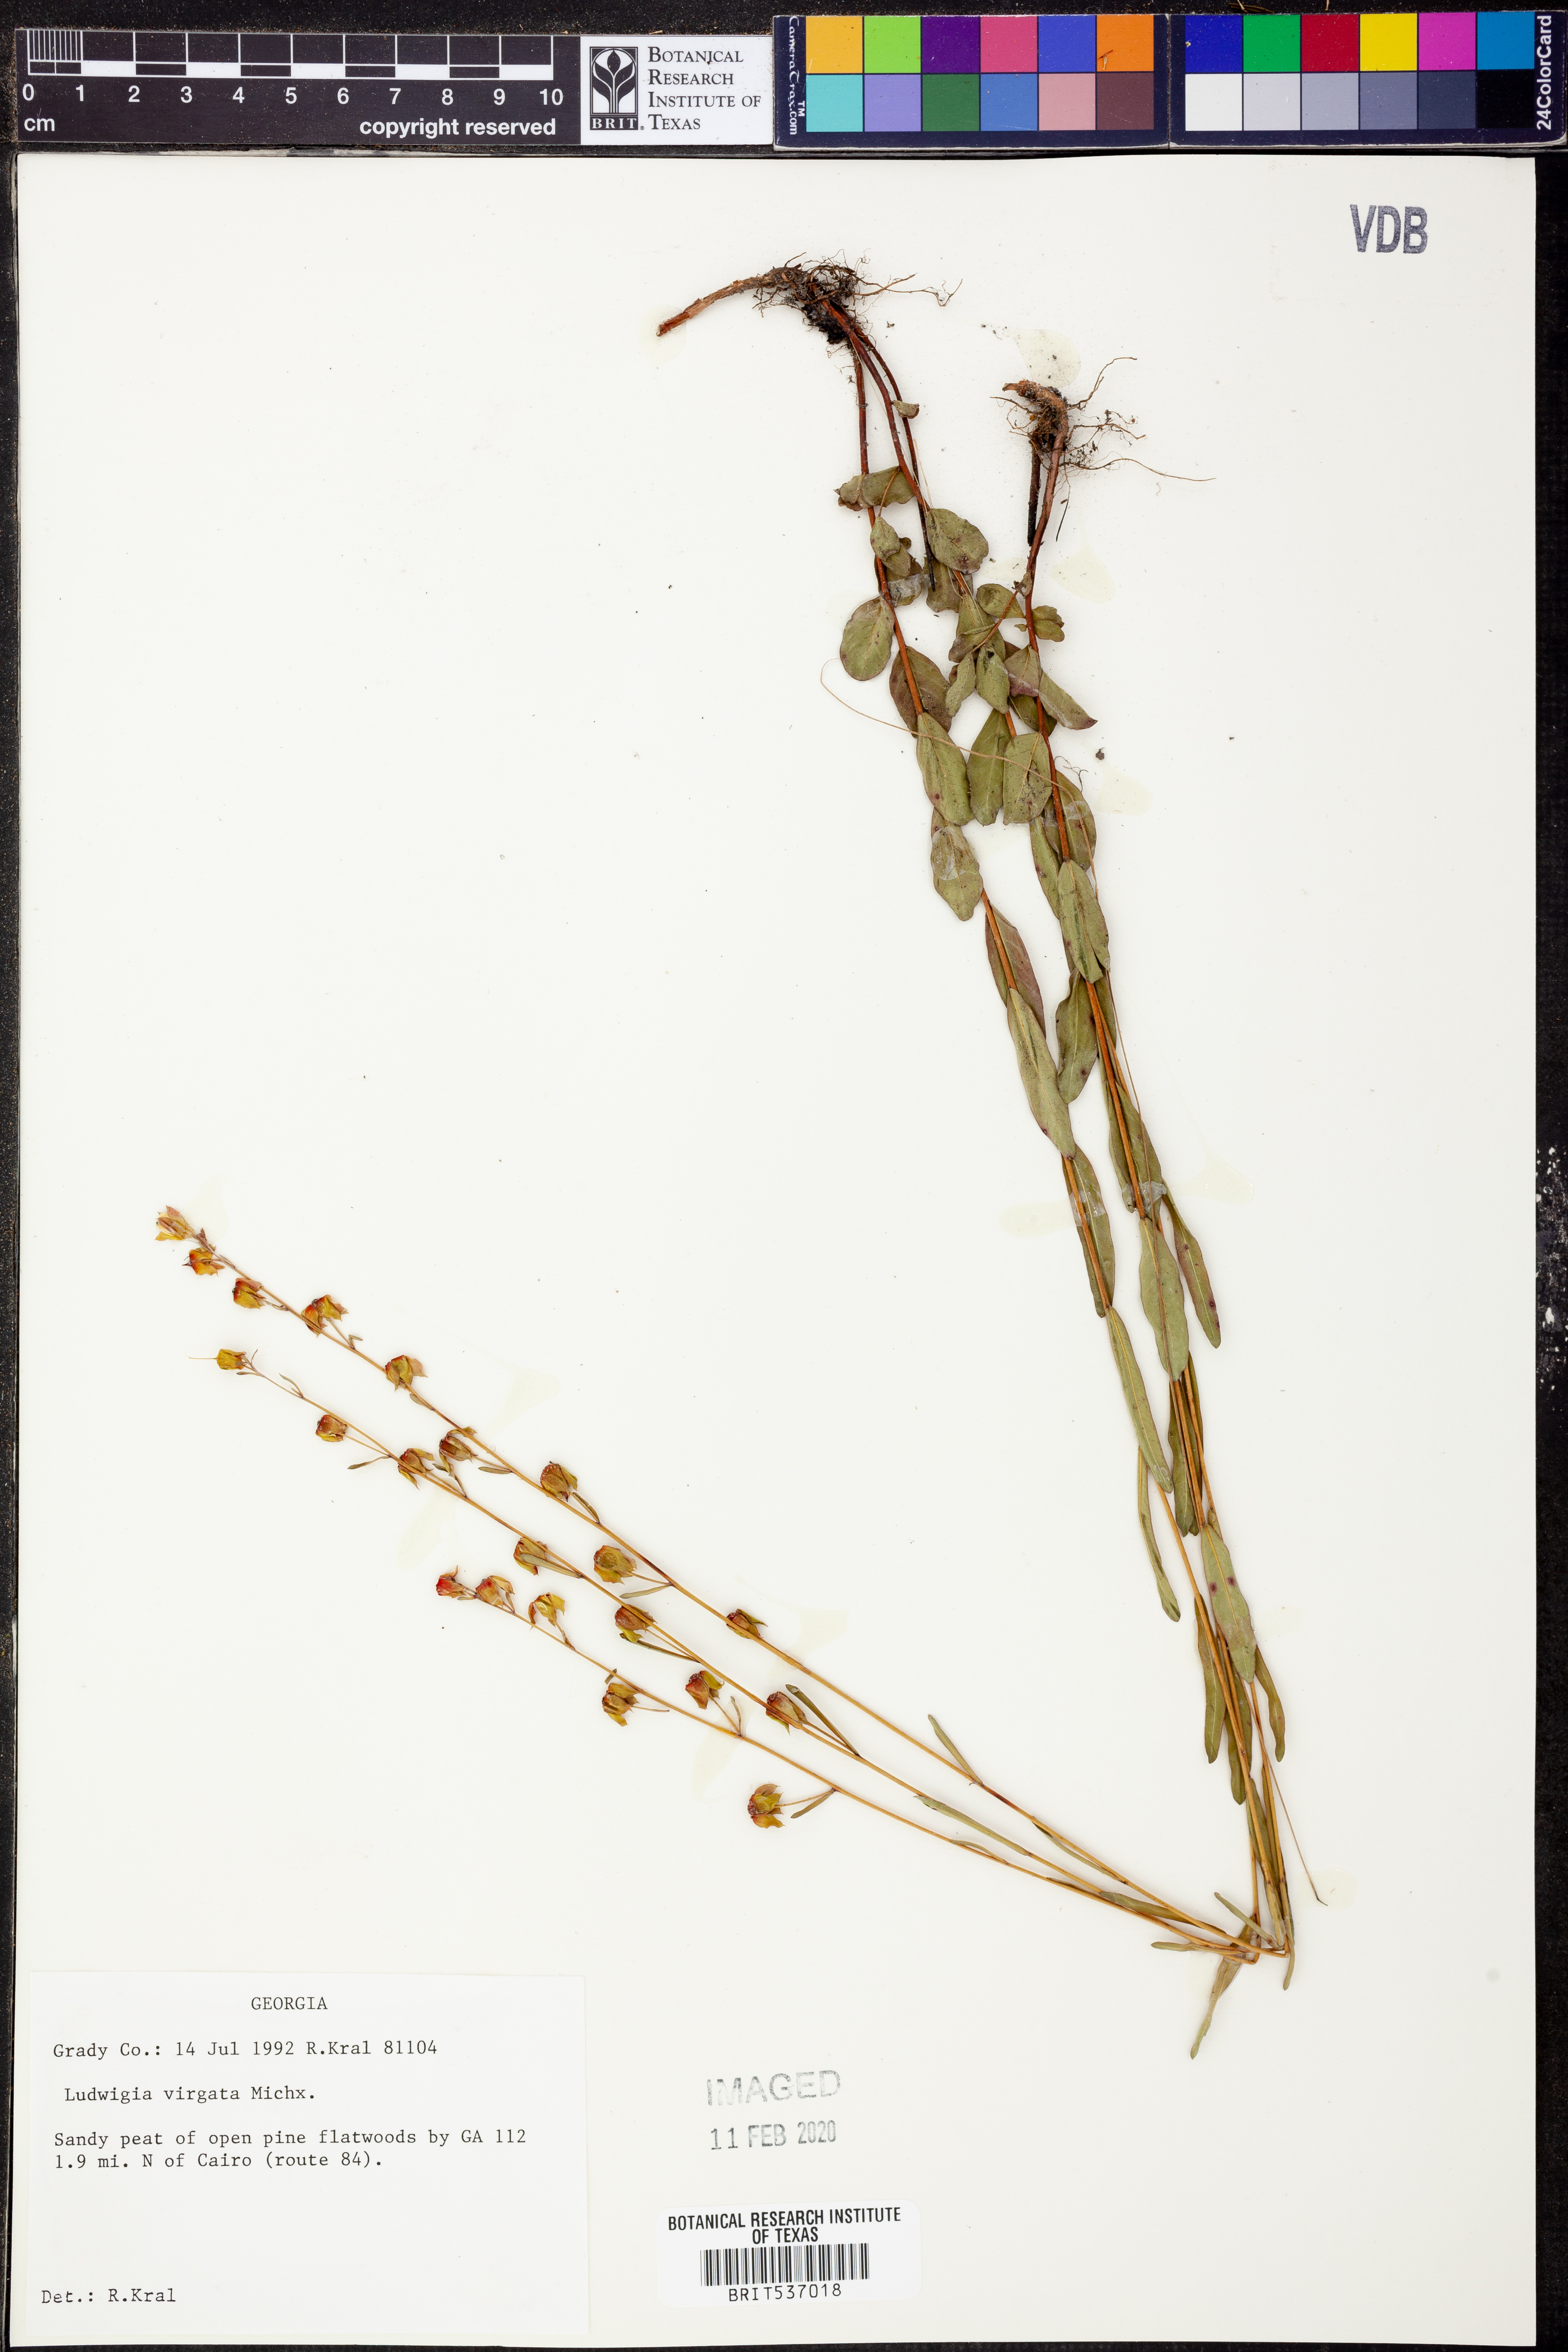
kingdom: Plantae
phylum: Tracheophyta
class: Magnoliopsida
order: Myrtales
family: Onagraceae
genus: Ludwigia
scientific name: Ludwigia virgata
